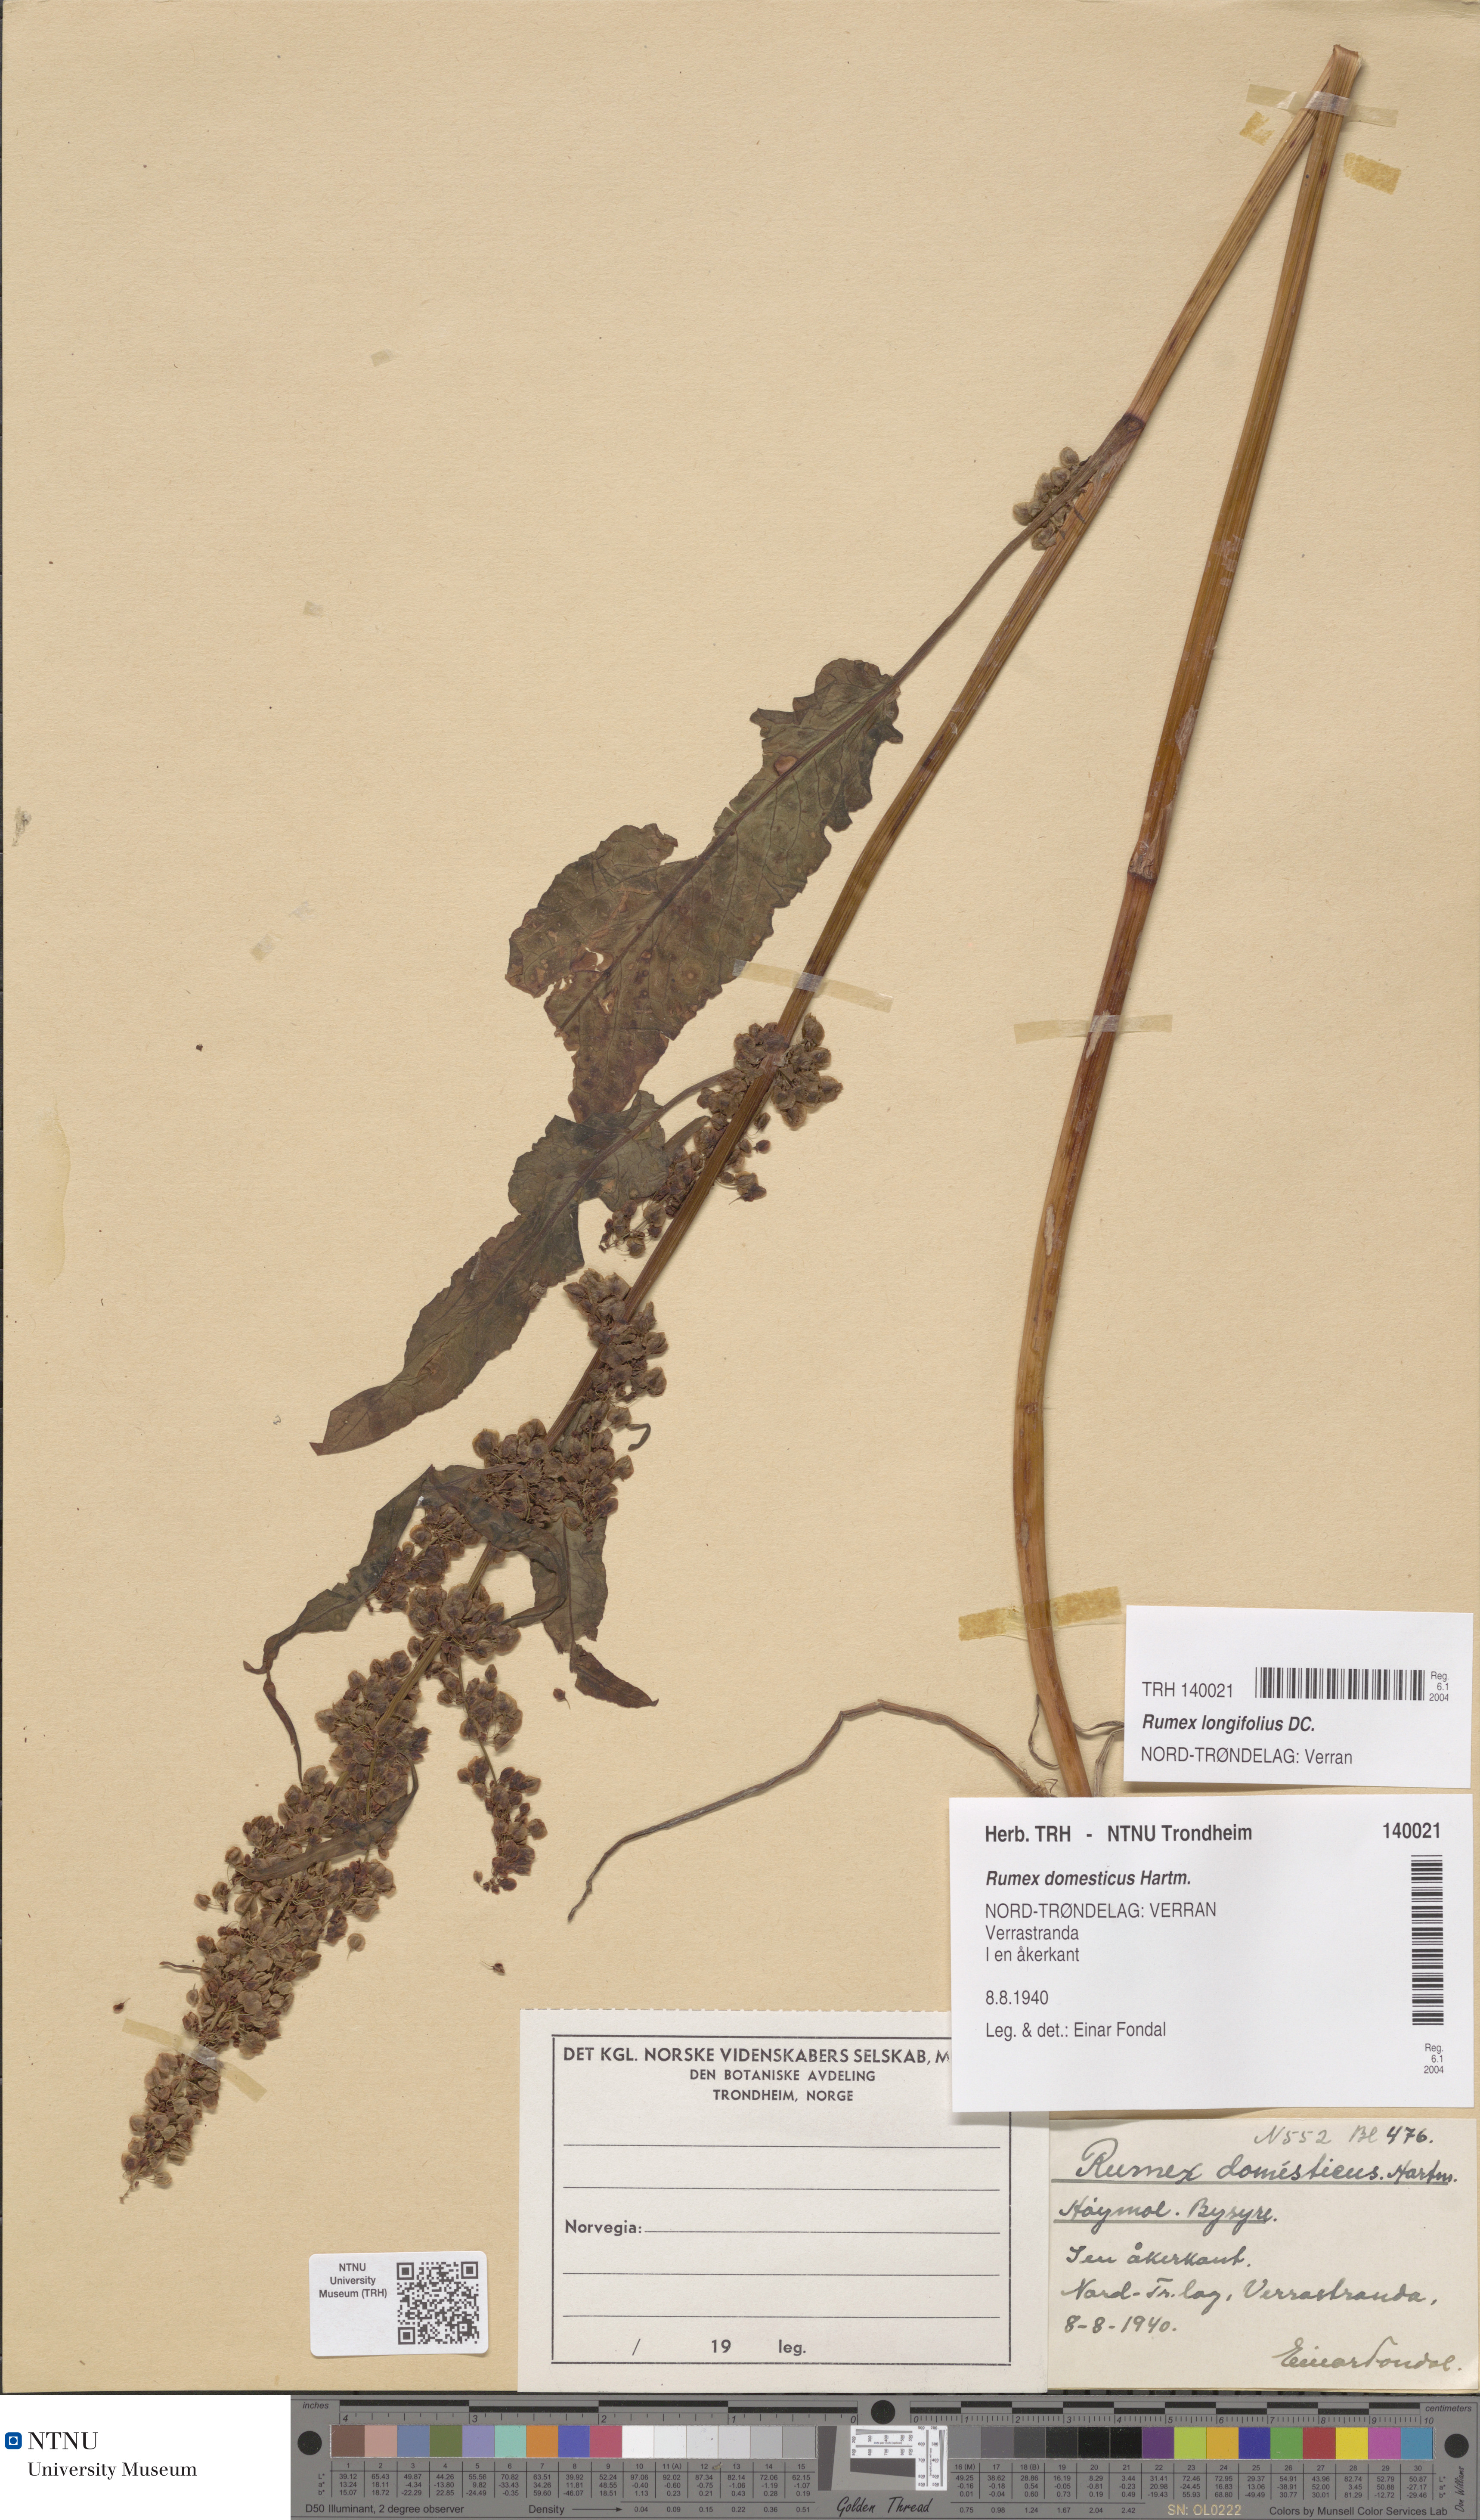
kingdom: Plantae
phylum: Tracheophyta
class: Magnoliopsida
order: Caryophyllales
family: Polygonaceae
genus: Rumex
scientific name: Rumex longifolius
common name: Dooryard dock
